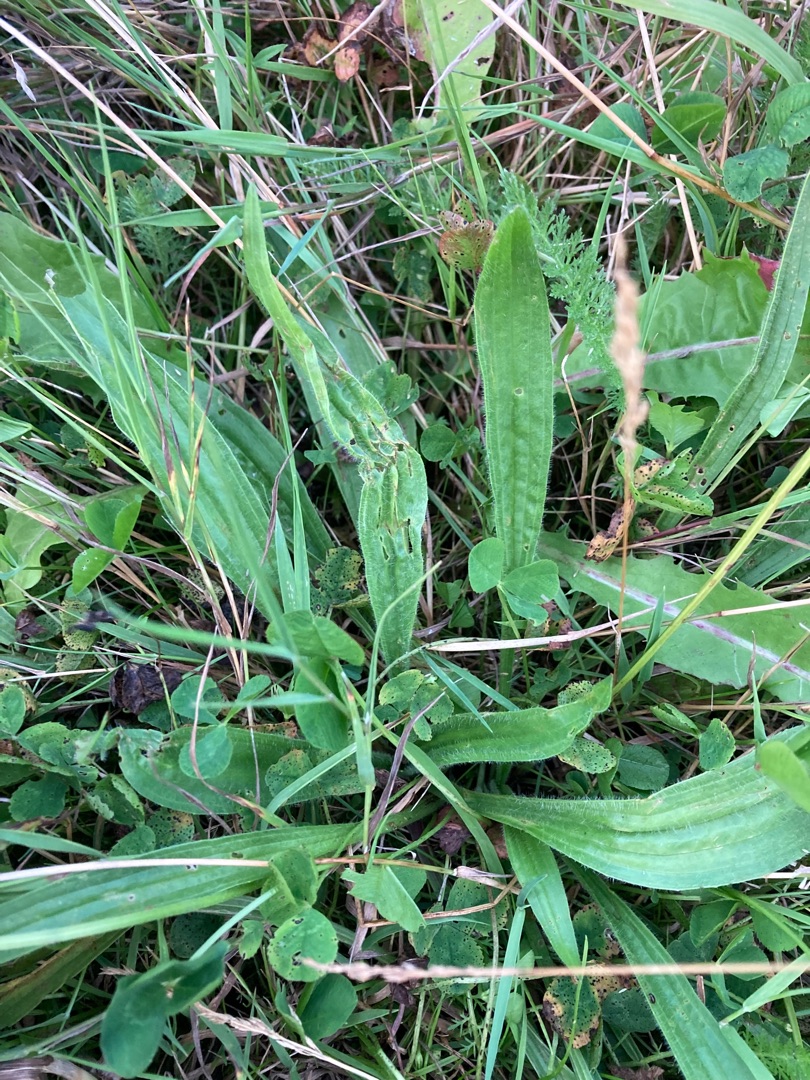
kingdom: Plantae
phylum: Tracheophyta
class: Magnoliopsida
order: Lamiales
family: Plantaginaceae
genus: Plantago
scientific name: Plantago lanceolata
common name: Lancet-vejbred
